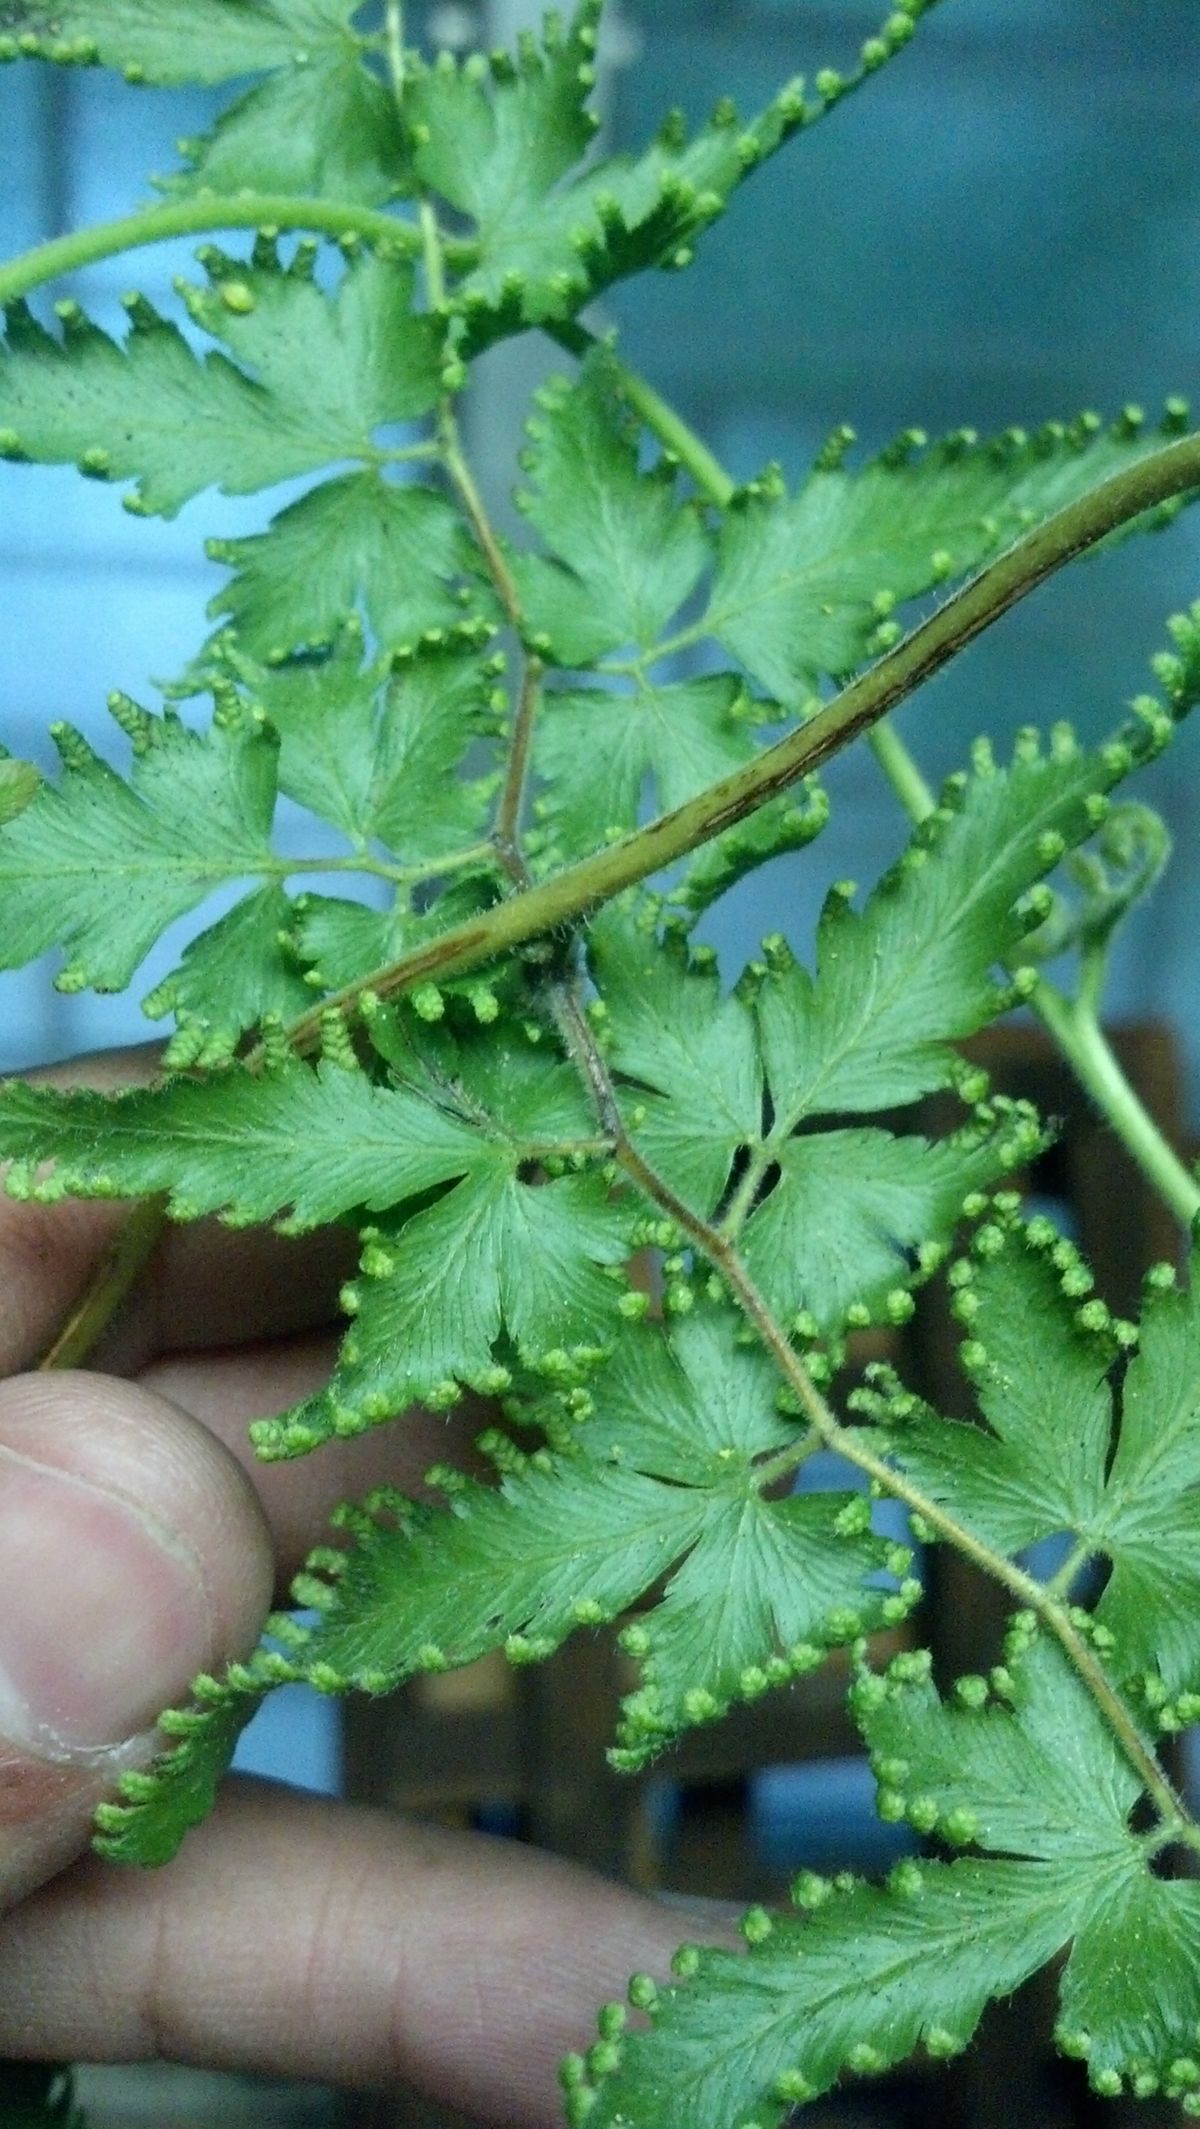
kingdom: Plantae
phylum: Tracheophyta
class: Polypodiopsida
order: Schizaeales
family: Lygodiaceae
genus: Lygodium
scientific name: Lygodium venustum
